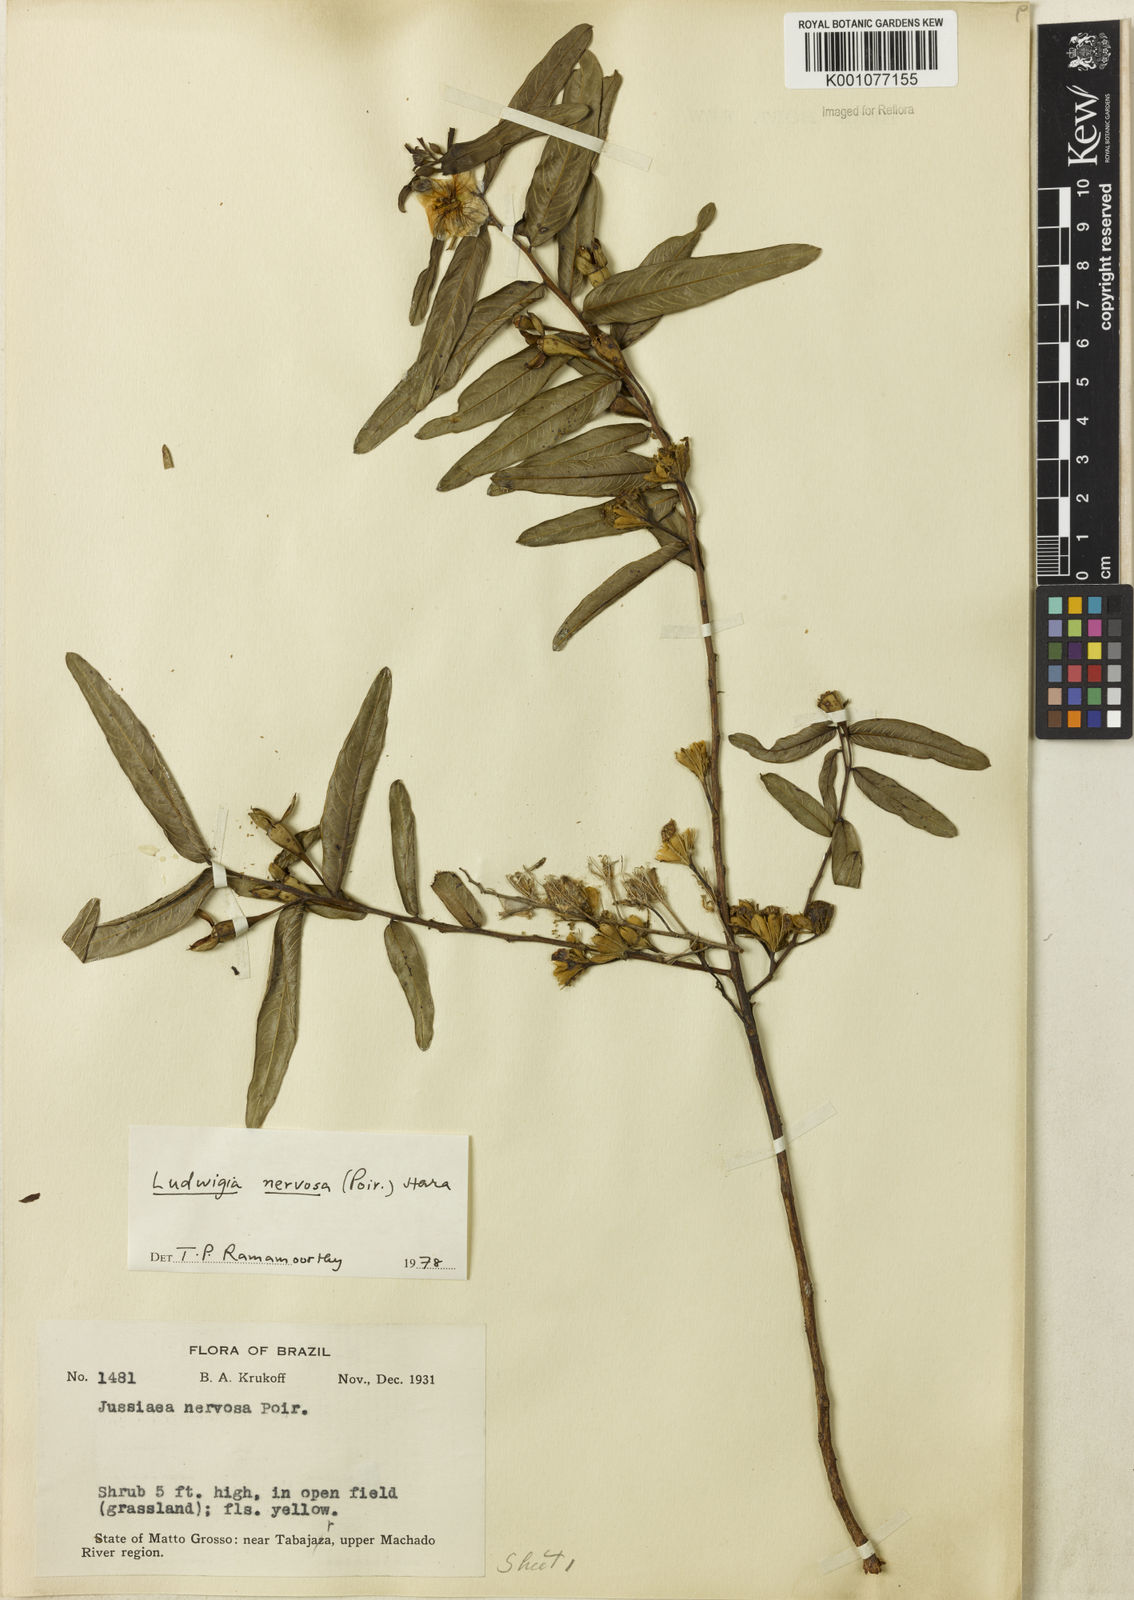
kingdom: Plantae
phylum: Tracheophyta
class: Magnoliopsida
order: Myrtales
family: Onagraceae
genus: Ludwigia
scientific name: Ludwigia nervosa
